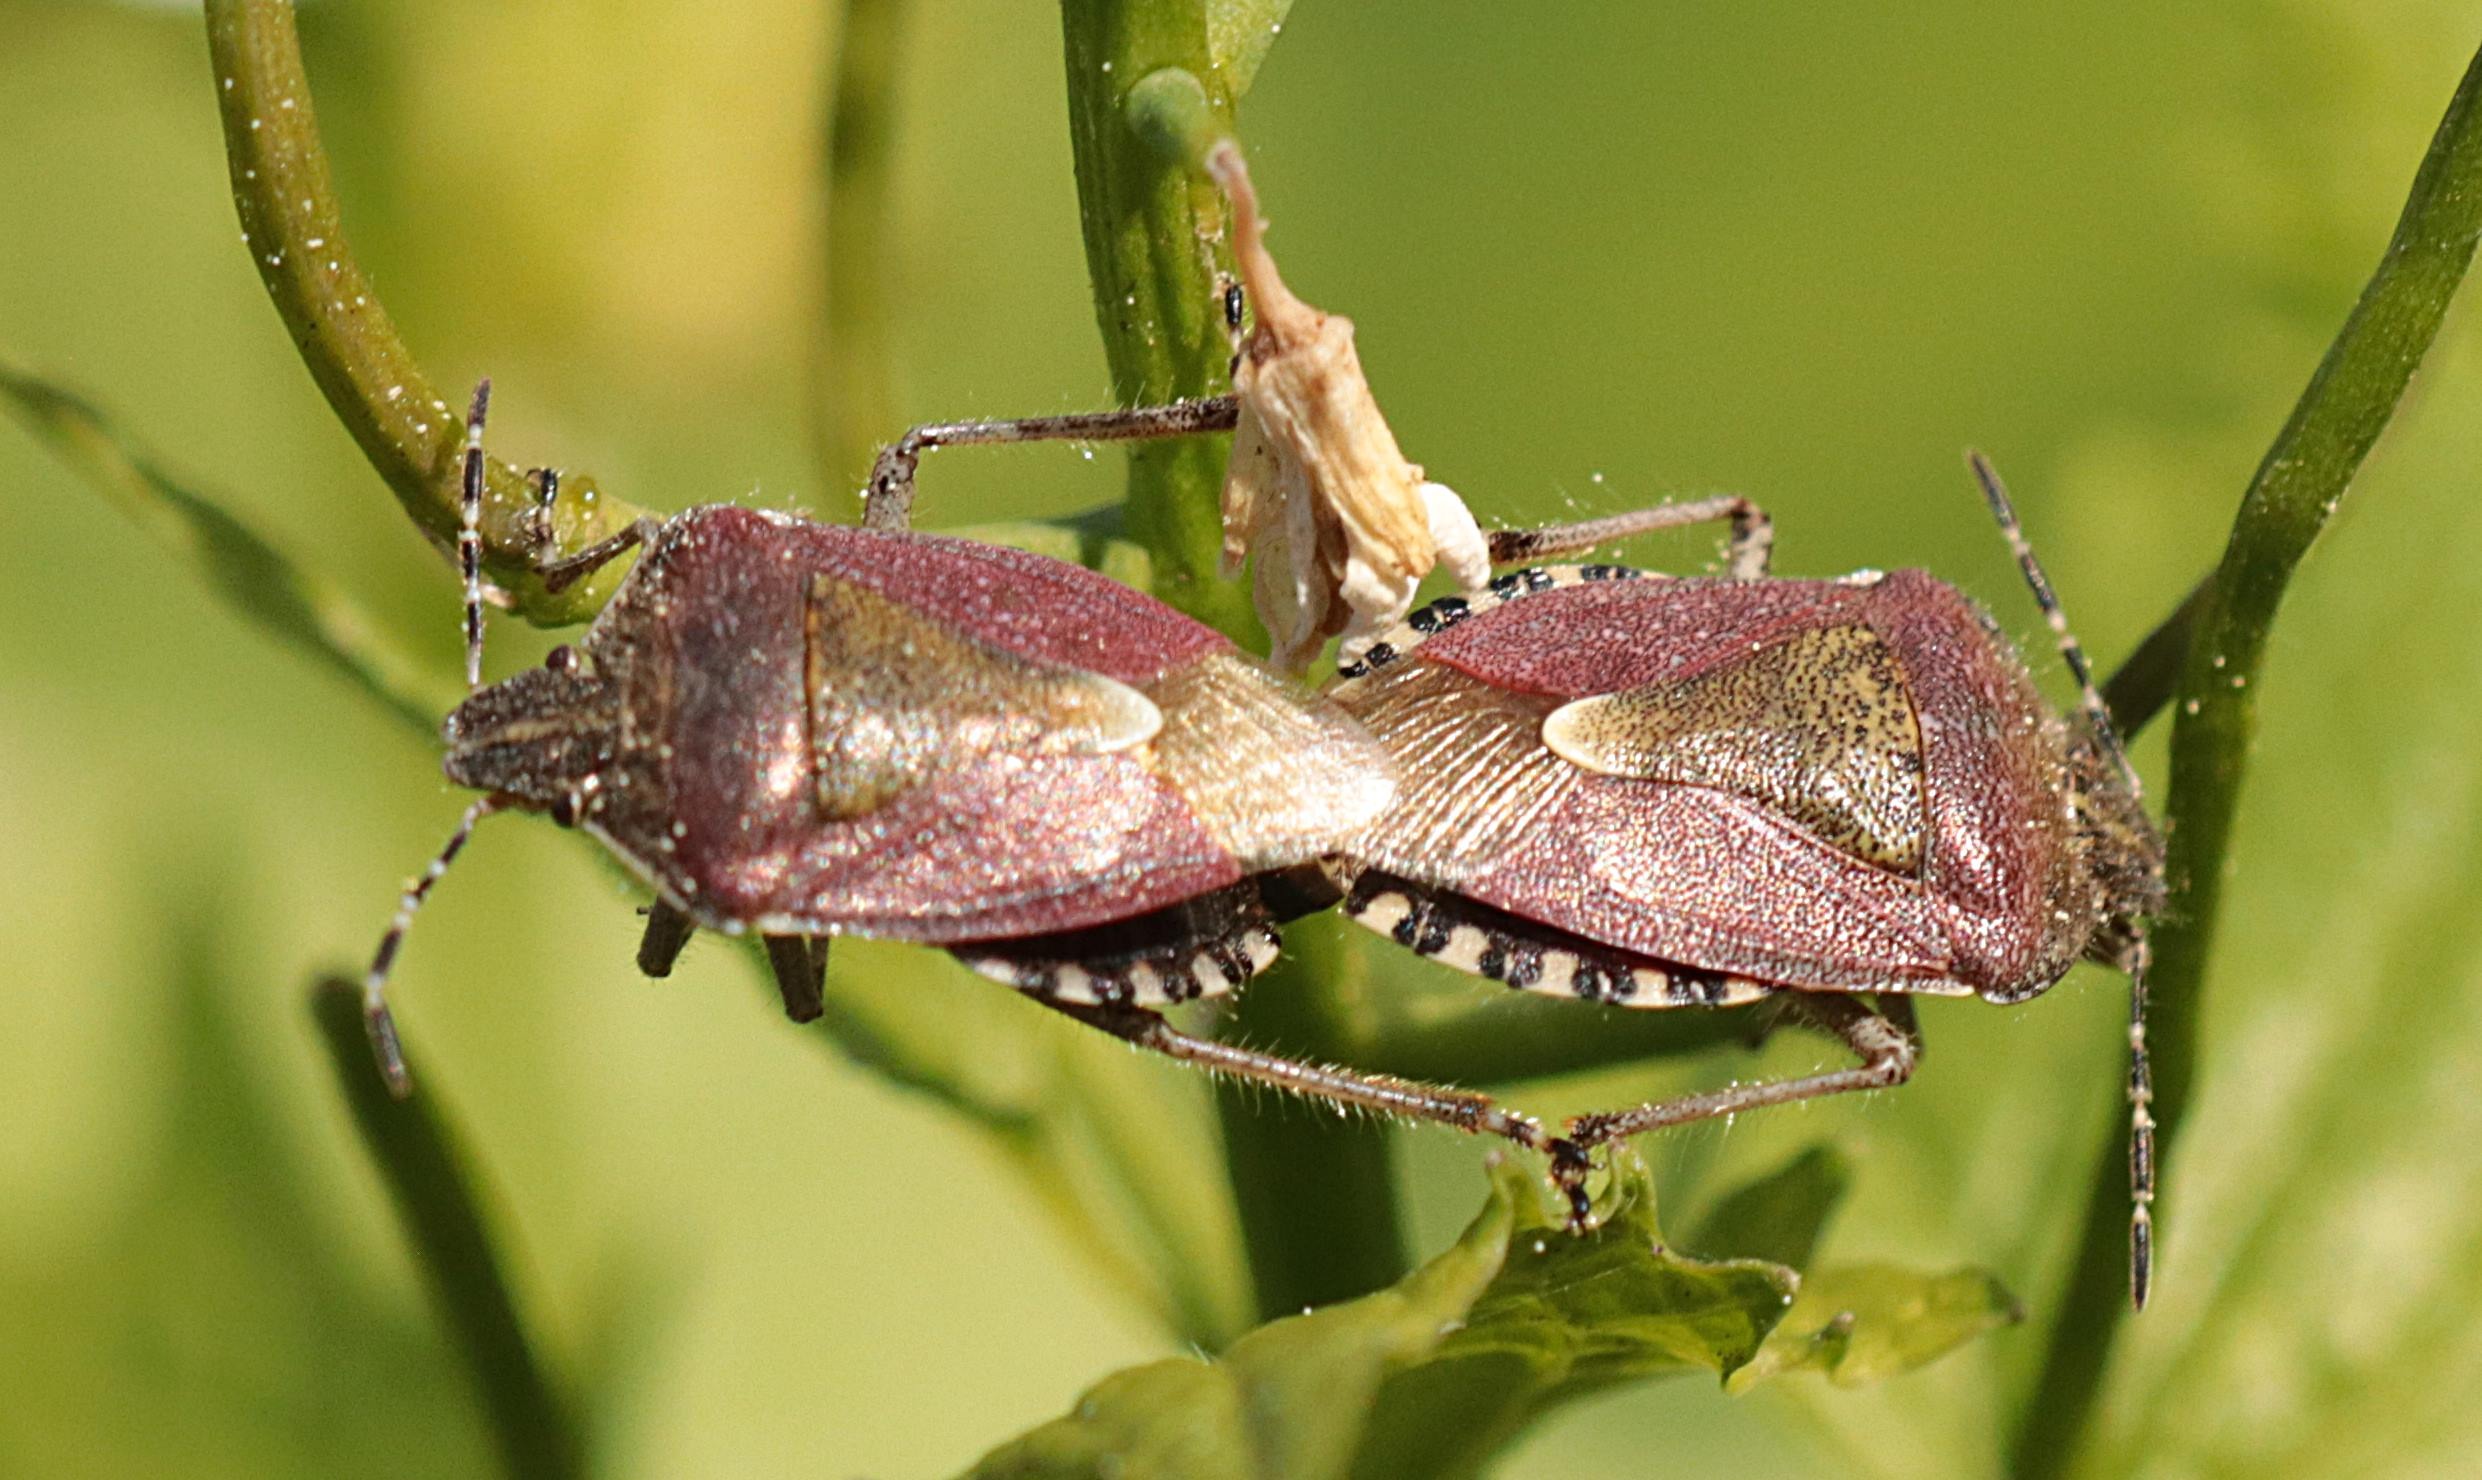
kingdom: Animalia
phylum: Arthropoda
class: Insecta
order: Hemiptera
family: Pentatomidae
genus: Dolycoris
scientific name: Dolycoris baccarum
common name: Almindelig bærtæge
